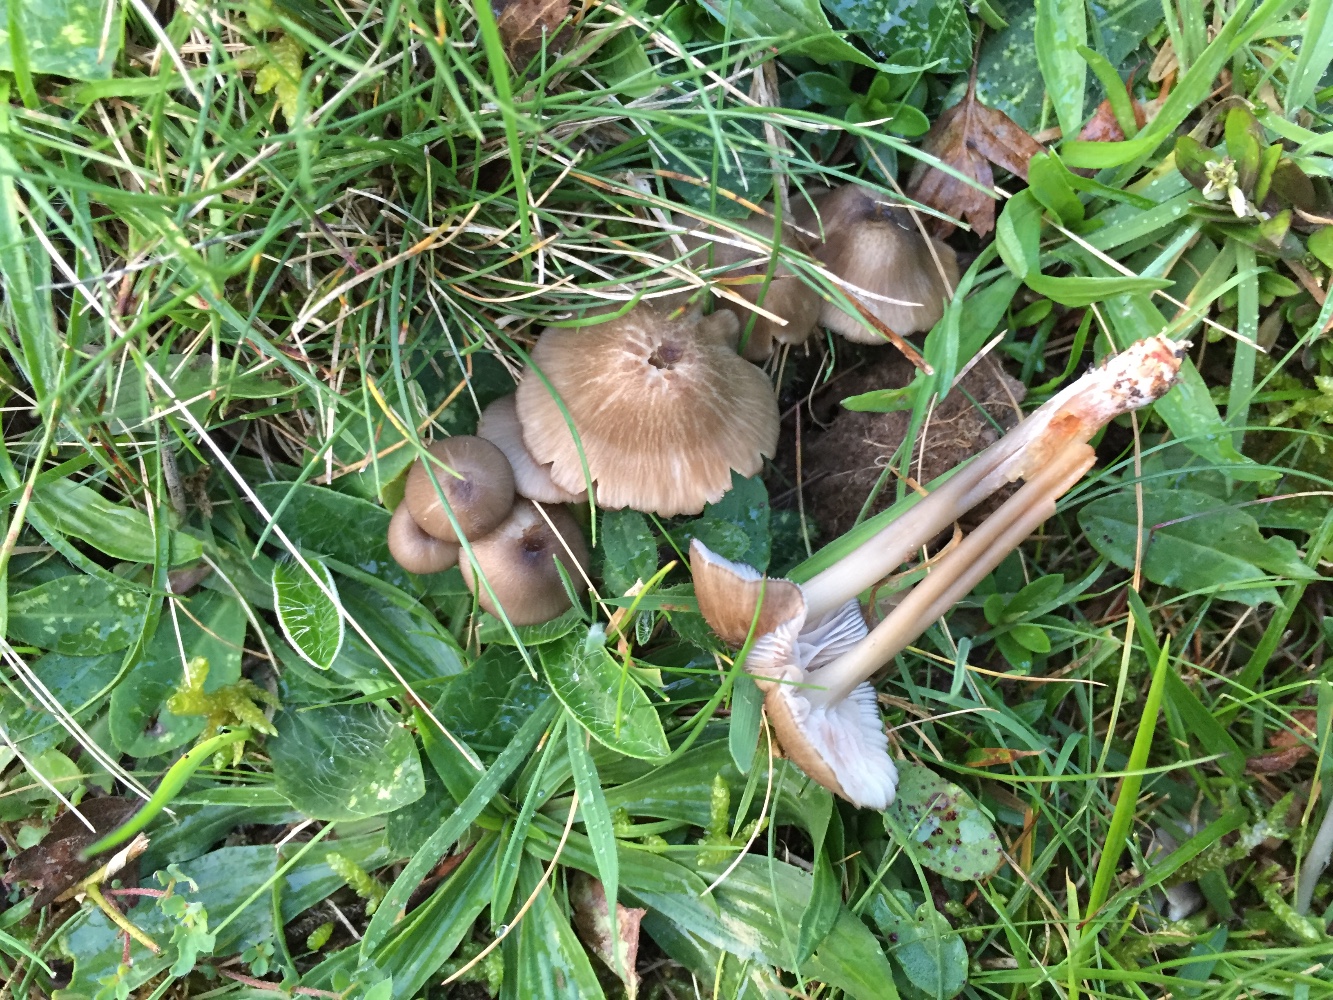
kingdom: Fungi
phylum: Basidiomycota
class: Agaricomycetes
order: Agaricales
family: Entolomataceae
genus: Entoloma
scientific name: Entoloma exile
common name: rødplettet rødblad
